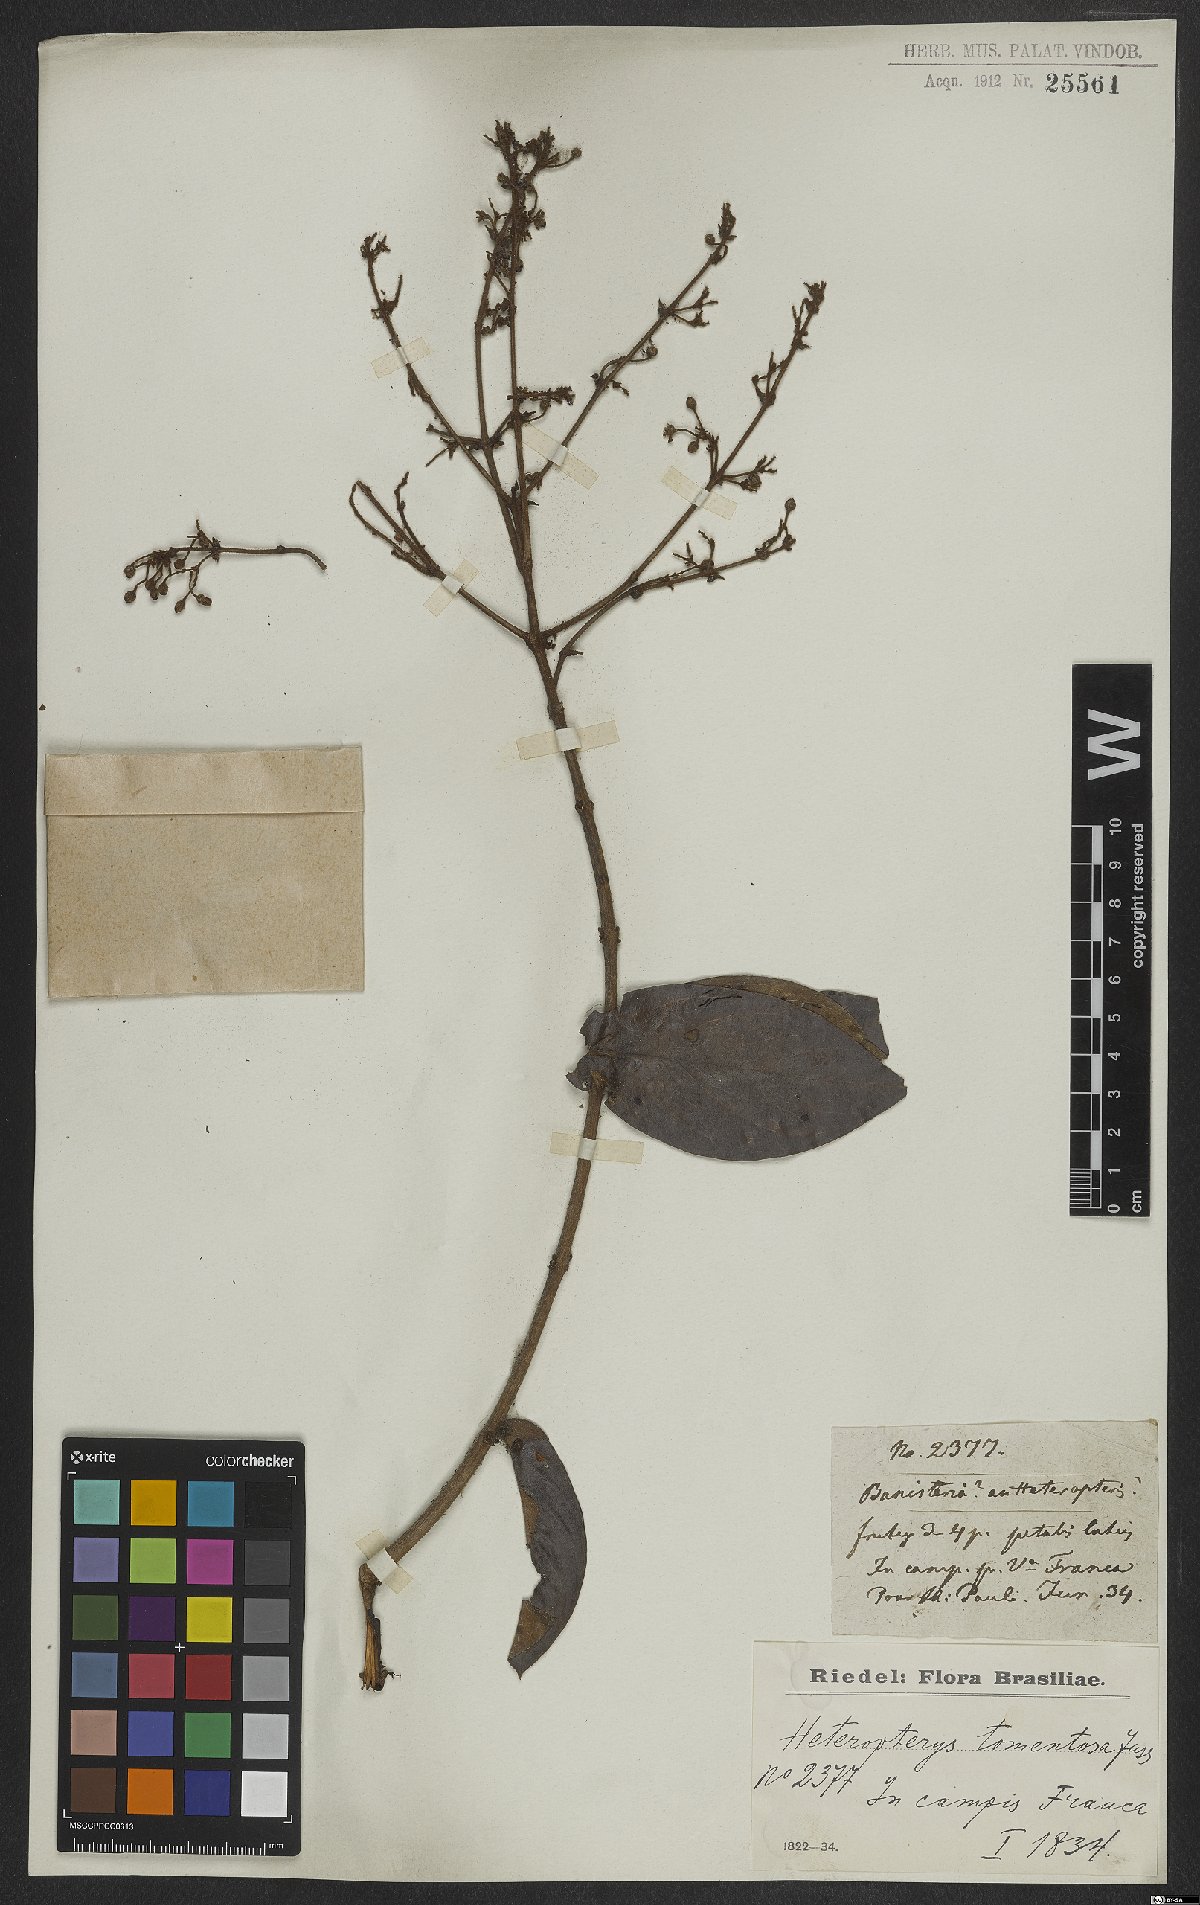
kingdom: Plantae
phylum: Tracheophyta
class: Magnoliopsida
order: Malpighiales
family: Malpighiaceae
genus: Heteropterys
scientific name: Heteropterys tomentosa
